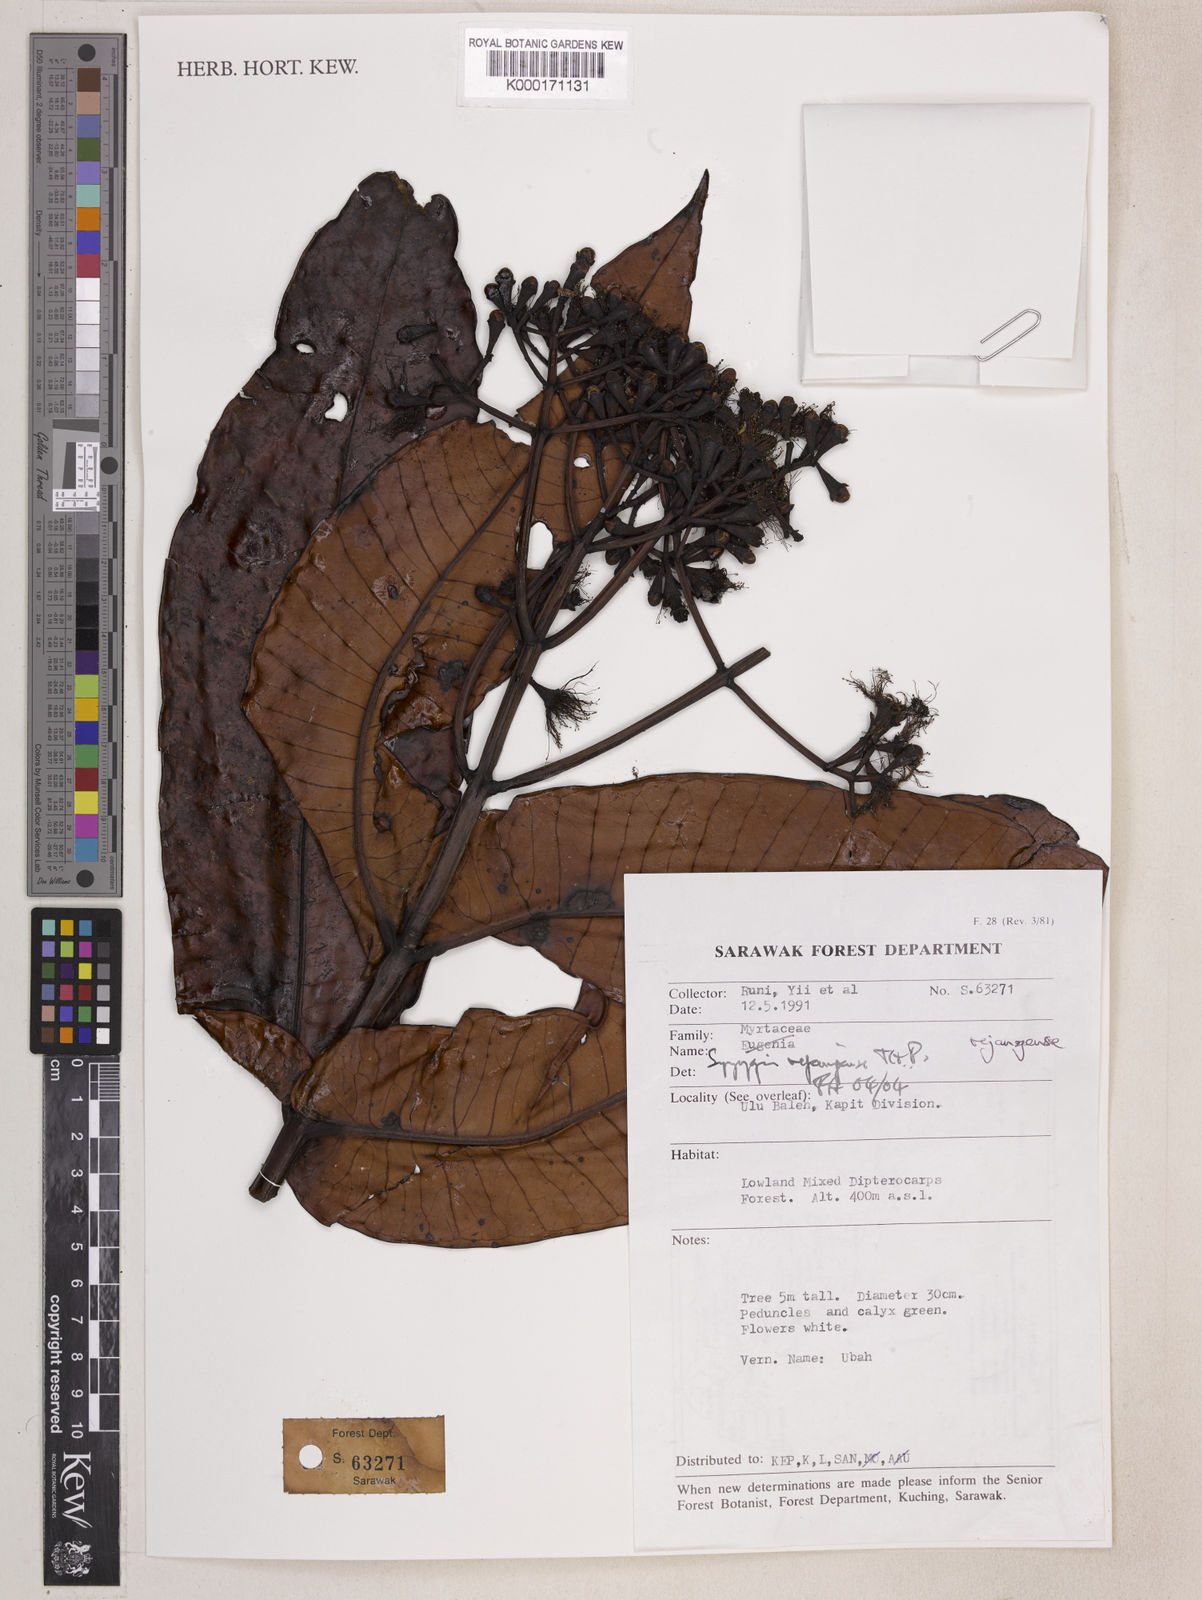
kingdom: Plantae
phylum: Tracheophyta
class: Magnoliopsida
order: Myrtales
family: Myrtaceae
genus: Syzygium
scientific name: Syzygium rejangense
